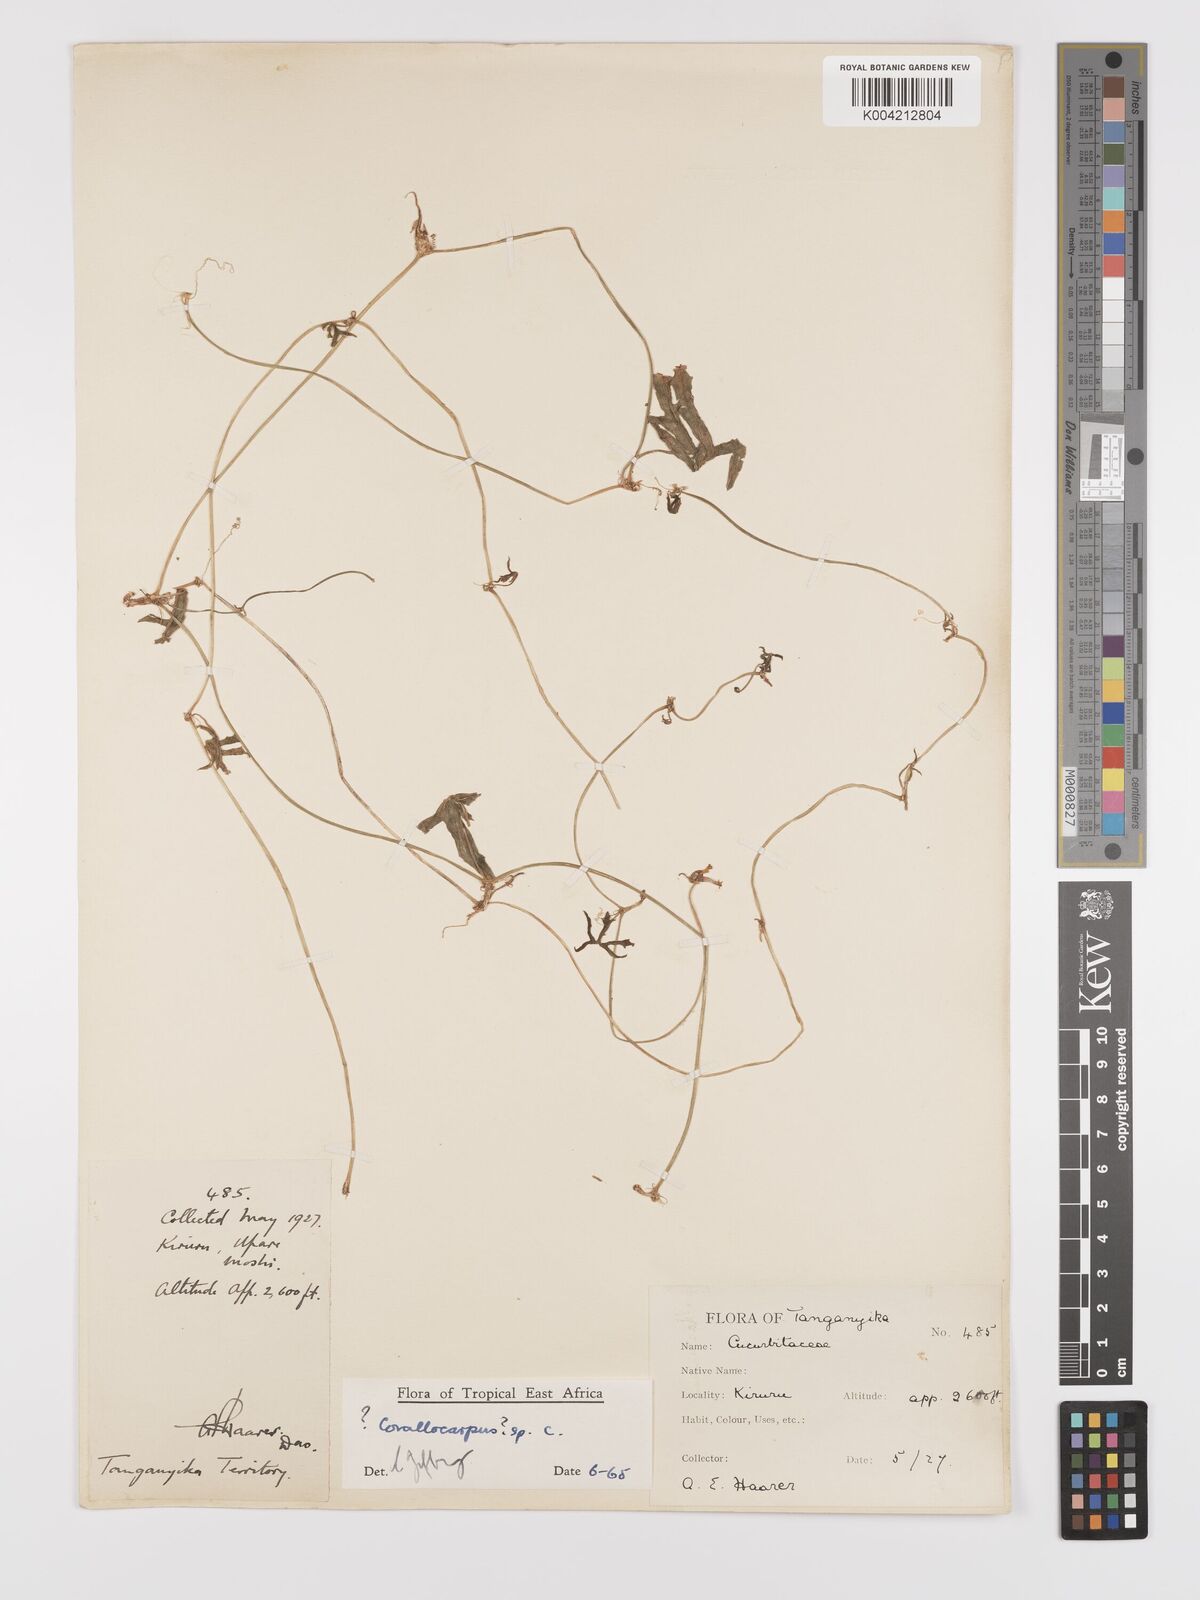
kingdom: Plantae
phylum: Tracheophyta
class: Magnoliopsida
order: Cucurbitales
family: Cucurbitaceae
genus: Corallocarpus
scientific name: Corallocarpus
